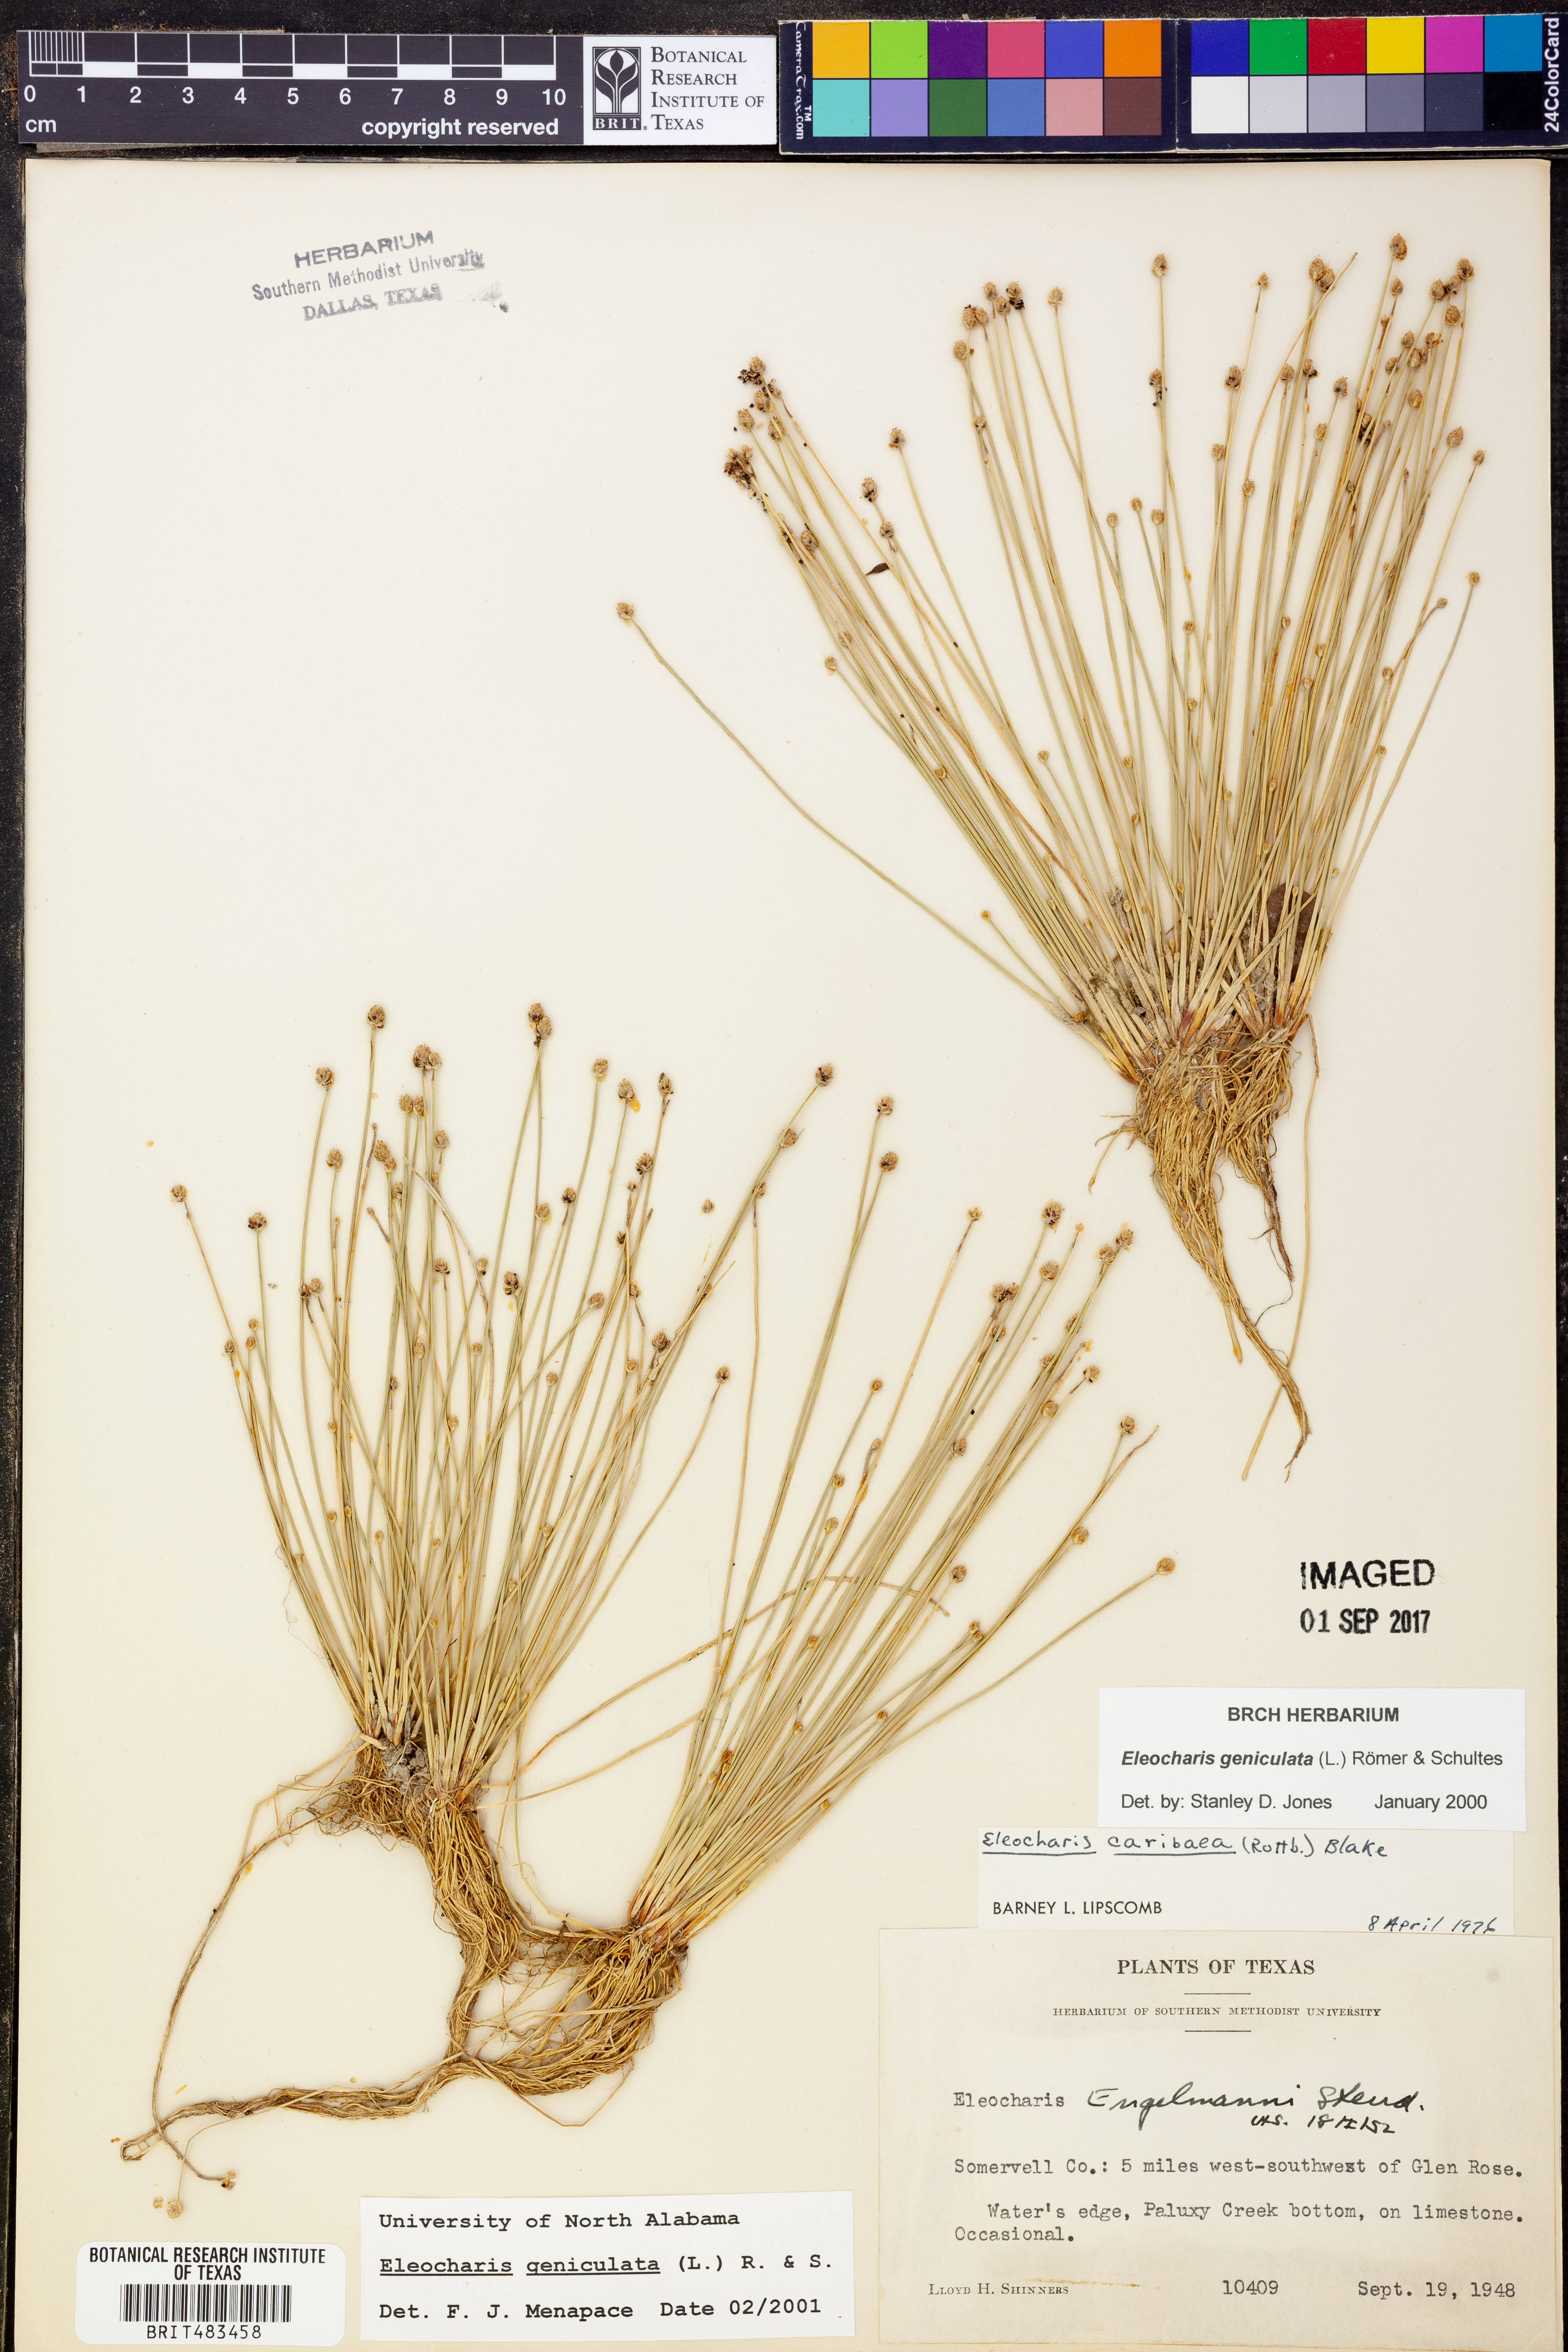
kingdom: Plantae
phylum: Tracheophyta
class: Liliopsida
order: Poales
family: Cyperaceae
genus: Eleocharis
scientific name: Eleocharis geniculata
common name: Canada spikesedge
